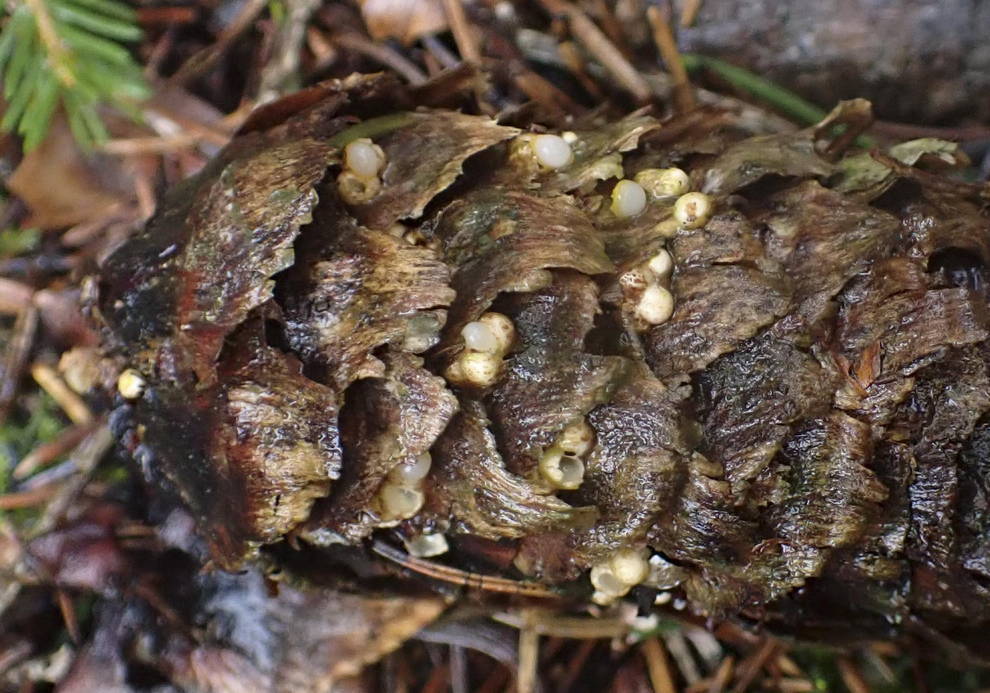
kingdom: Fungi
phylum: Basidiomycota
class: Agaricomycetes
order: Geastrales
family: Geastraceae
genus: Sphaerobolus
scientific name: Sphaerobolus stellatus
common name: bombekaster
